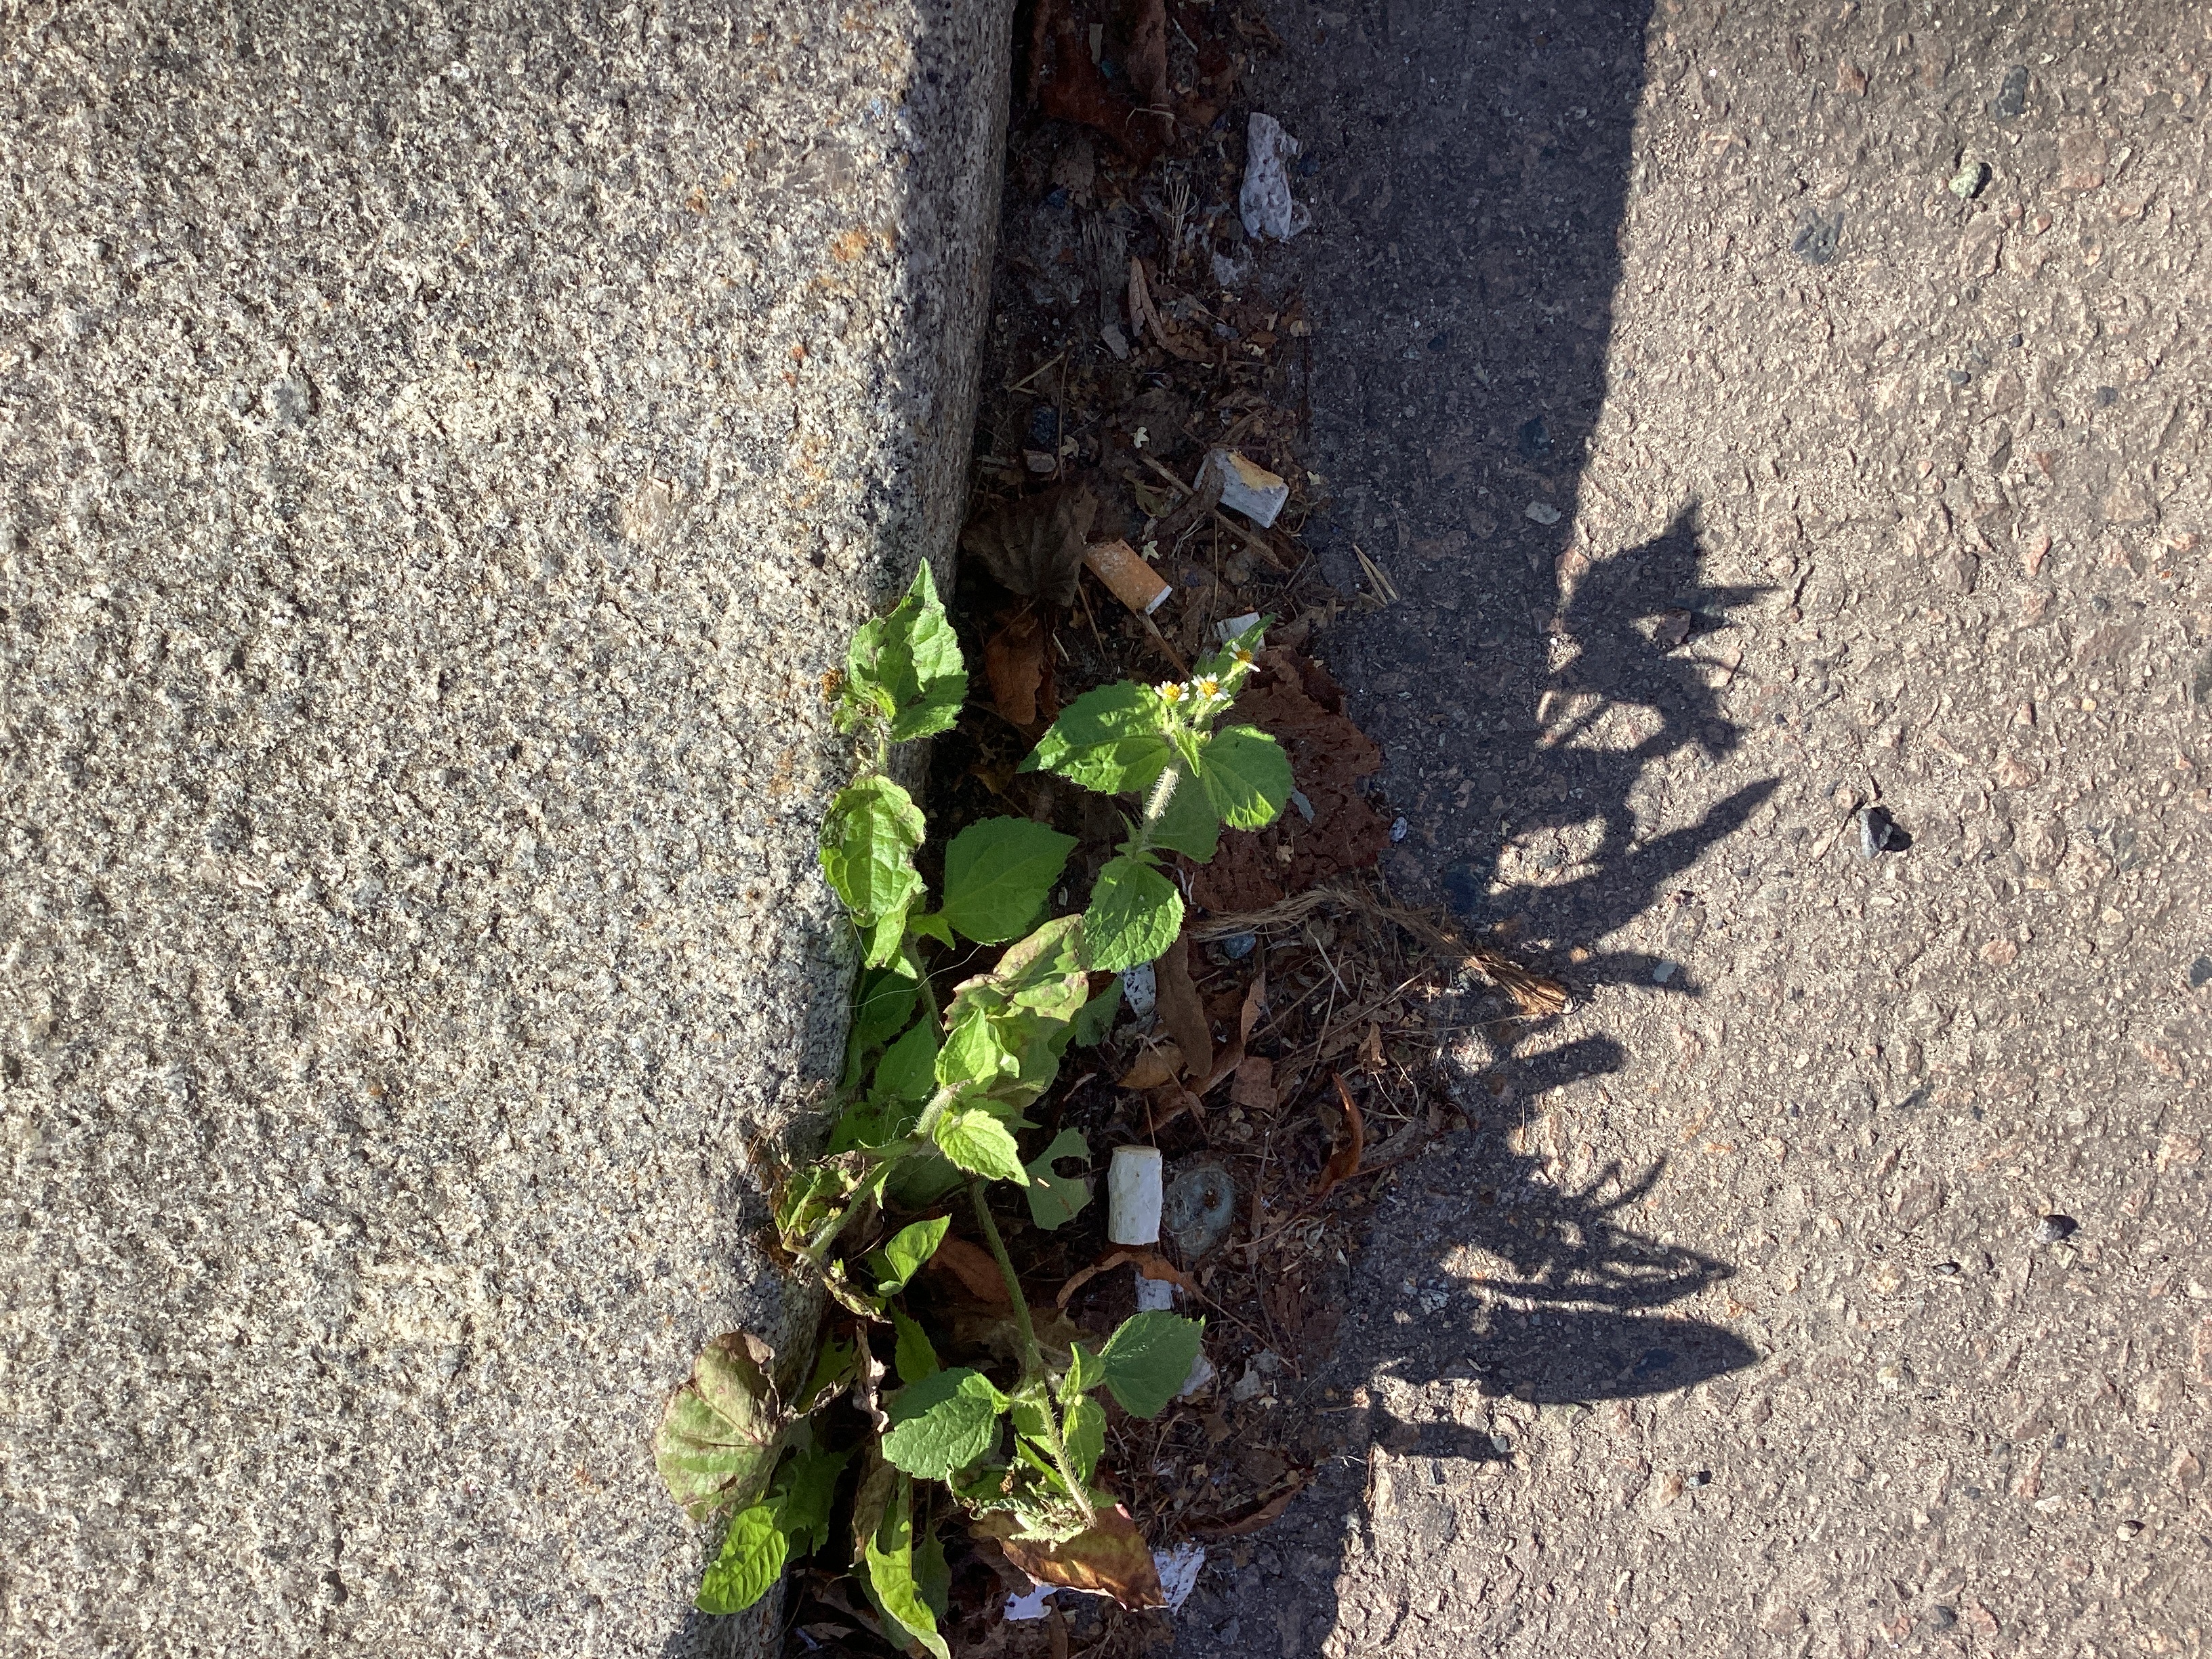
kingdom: Plantae
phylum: Tracheophyta
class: Magnoliopsida
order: Asterales
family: Asteraceae
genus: Galinsoga
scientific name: Galinsoga quadriradiata
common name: nesleskjellfrø
